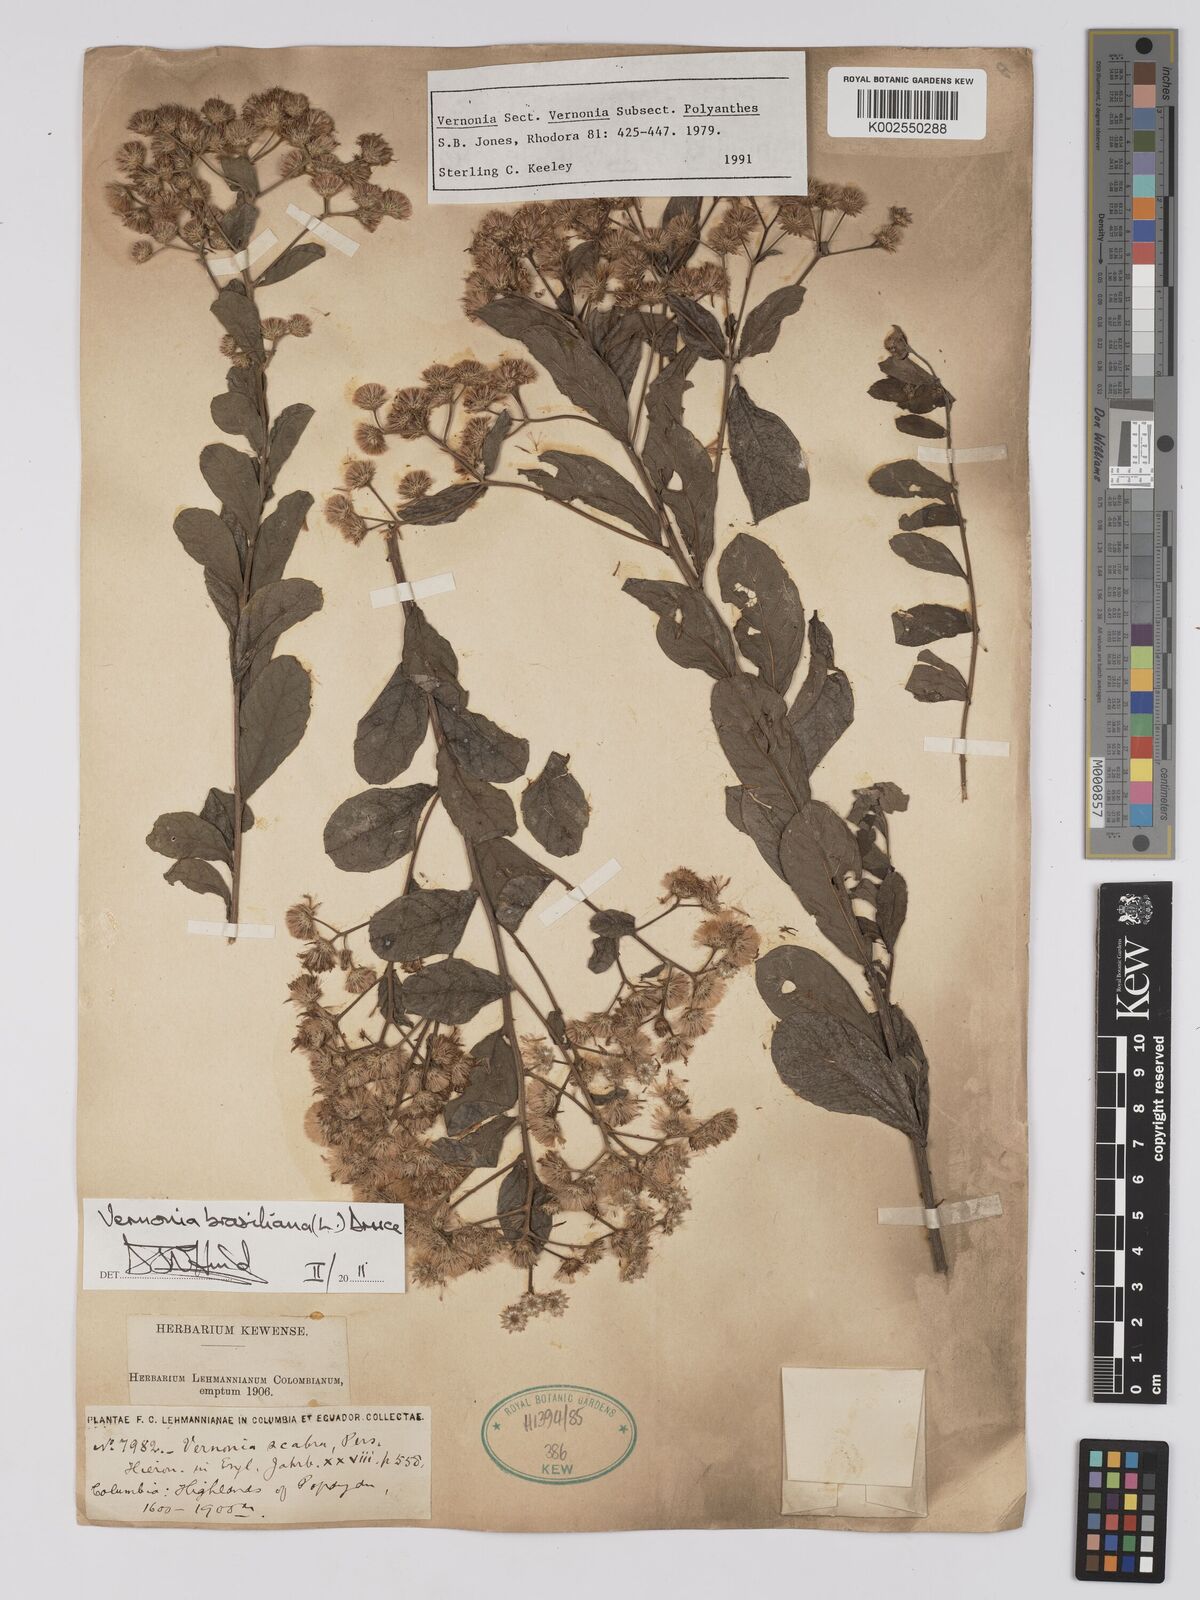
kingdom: Plantae
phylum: Tracheophyta
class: Magnoliopsida
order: Asterales
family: Asteraceae
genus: Vernonanthura
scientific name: Vernonanthura brasiliana
